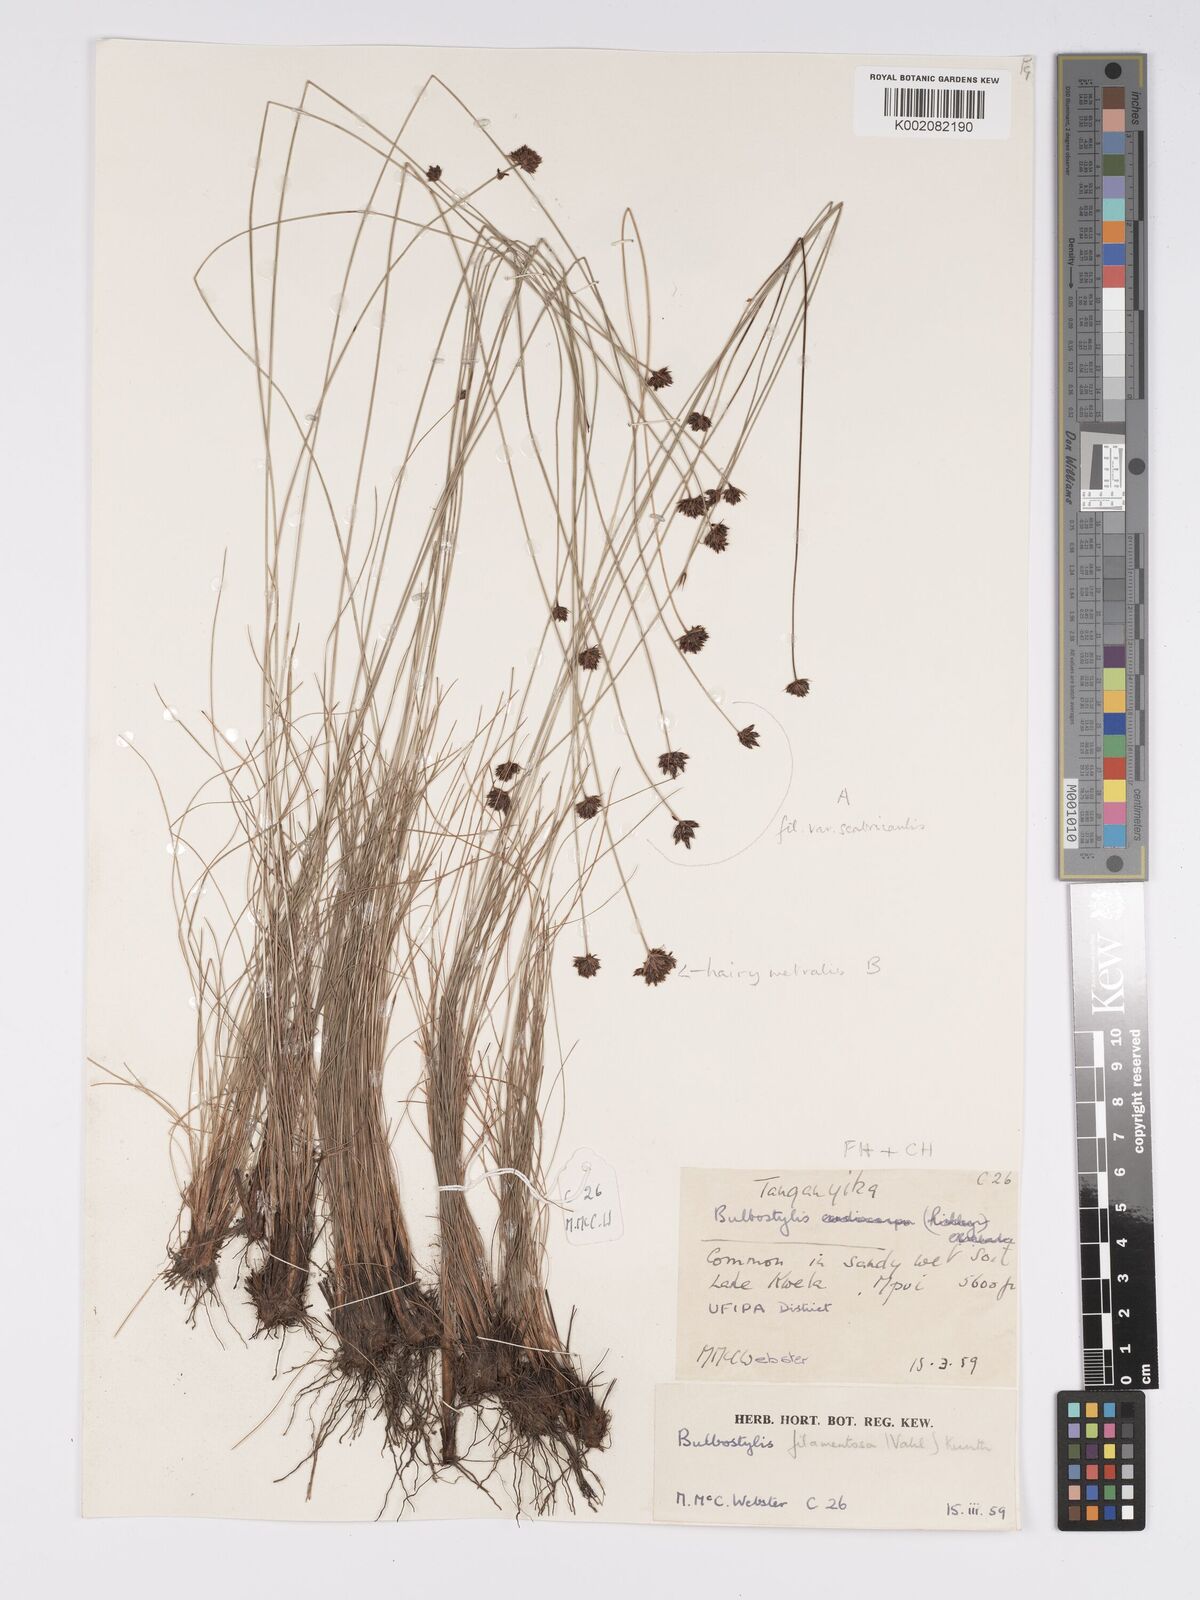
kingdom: Plantae
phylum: Tracheophyta
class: Liliopsida
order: Poales
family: Cyperaceae
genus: Bulbostylis
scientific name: Bulbostylis filamentosa
